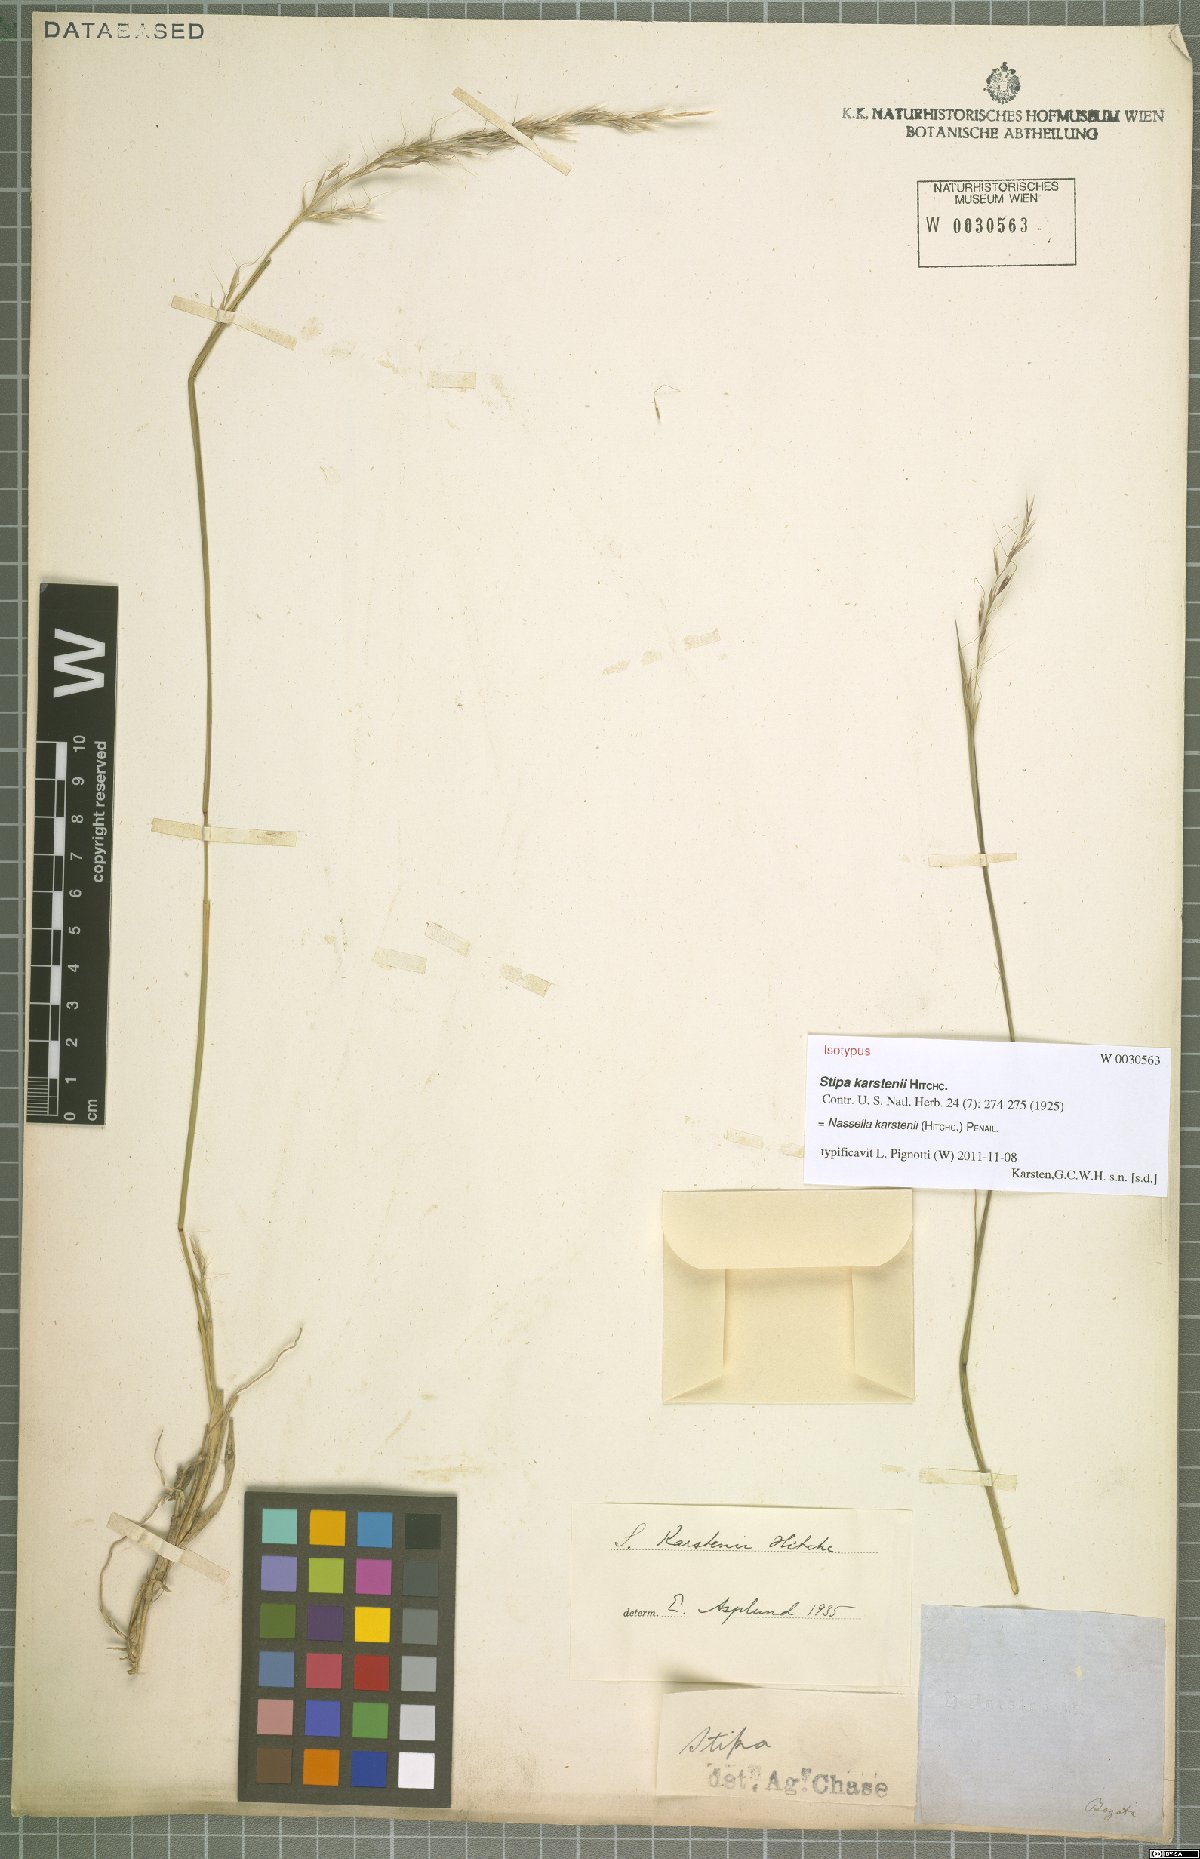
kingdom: Plantae
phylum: Tracheophyta
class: Liliopsida
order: Poales
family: Poaceae
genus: Nassella
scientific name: Nassella karstenii
